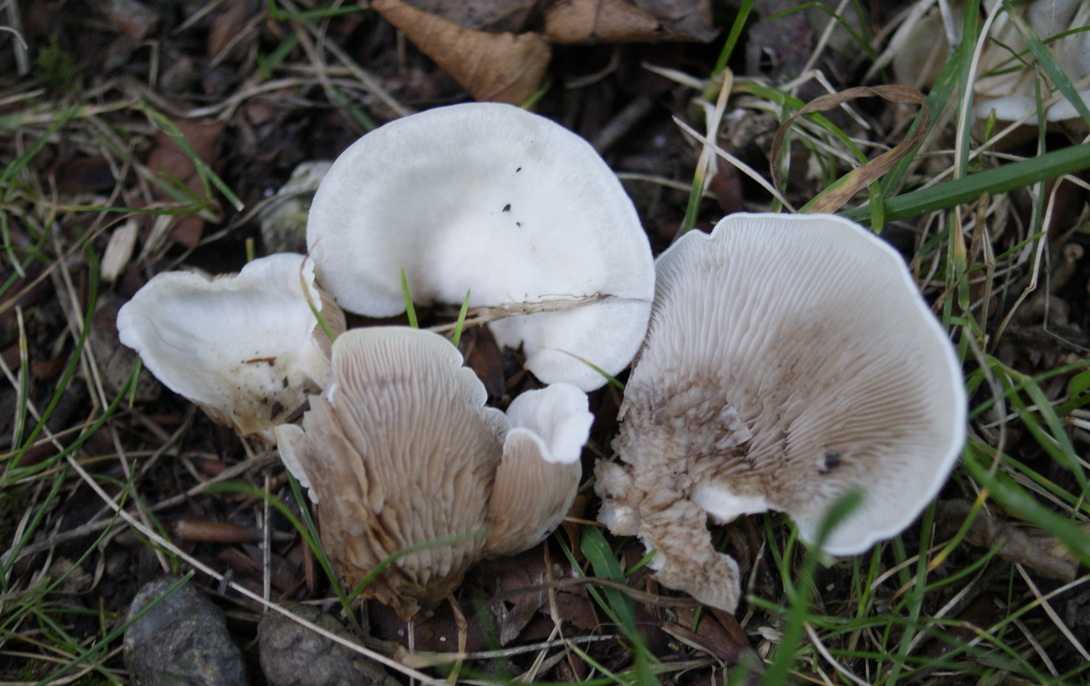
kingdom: Fungi
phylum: Basidiomycota
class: Agaricomycetes
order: Agaricales
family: Crepidotaceae
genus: Crepidotus
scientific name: Crepidotus autochthonus
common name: skæv muslingesvamp
